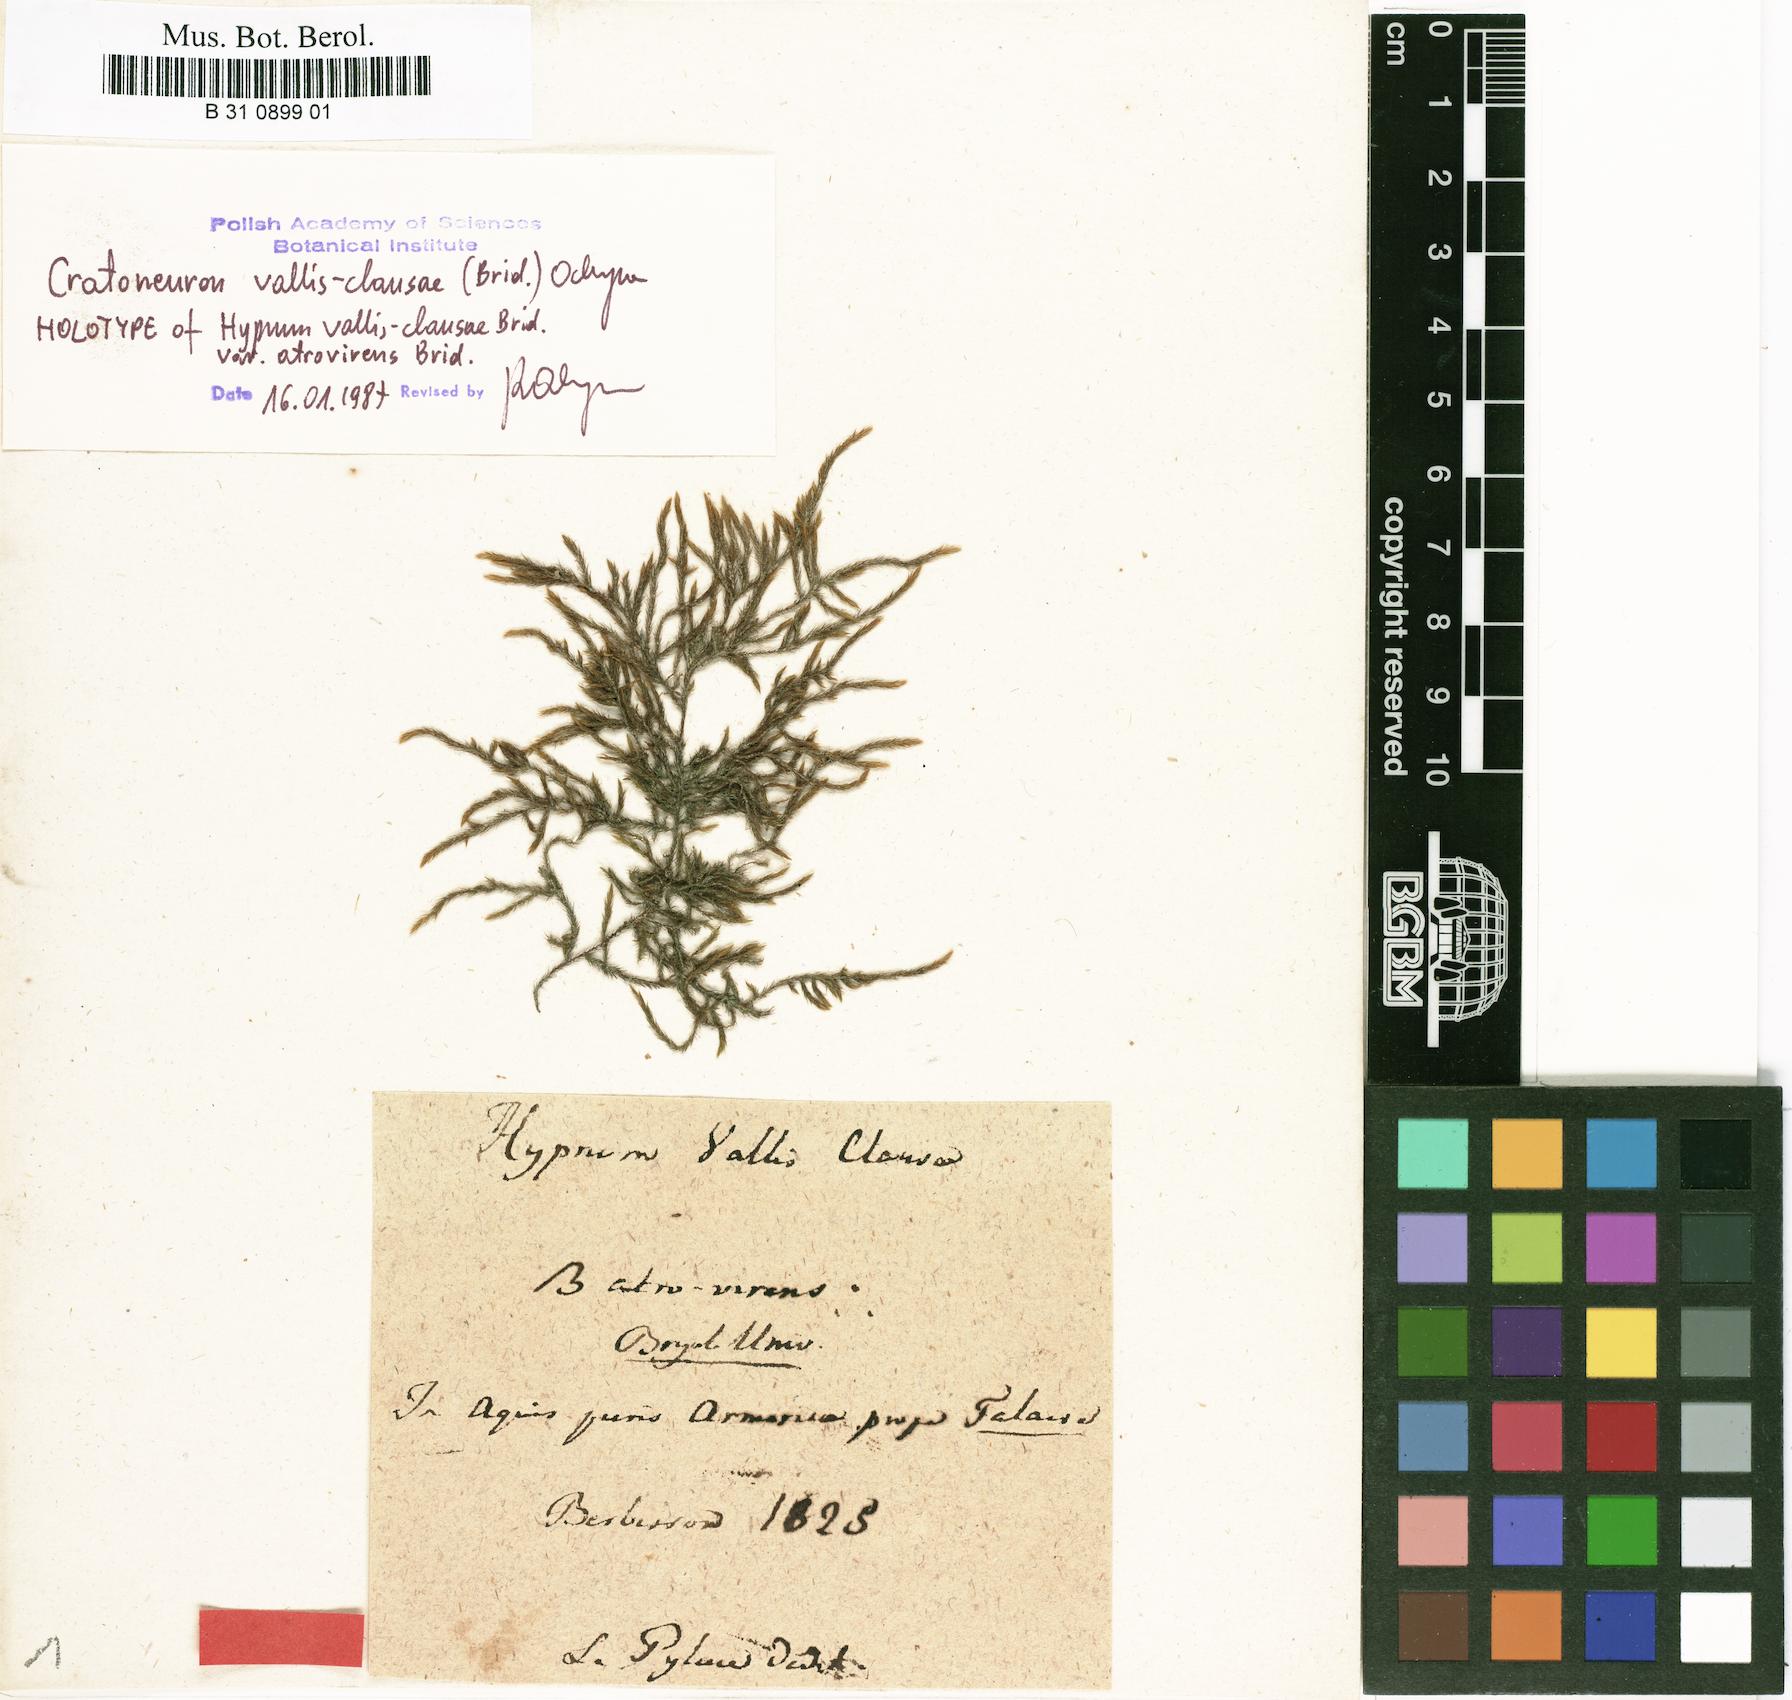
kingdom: Plantae
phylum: Bryophyta
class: Bryopsida
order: Hypnales
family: Amblystegiaceae
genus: Cratoneuron
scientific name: Cratoneuron filicinum
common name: Fern-leaved hook moss
